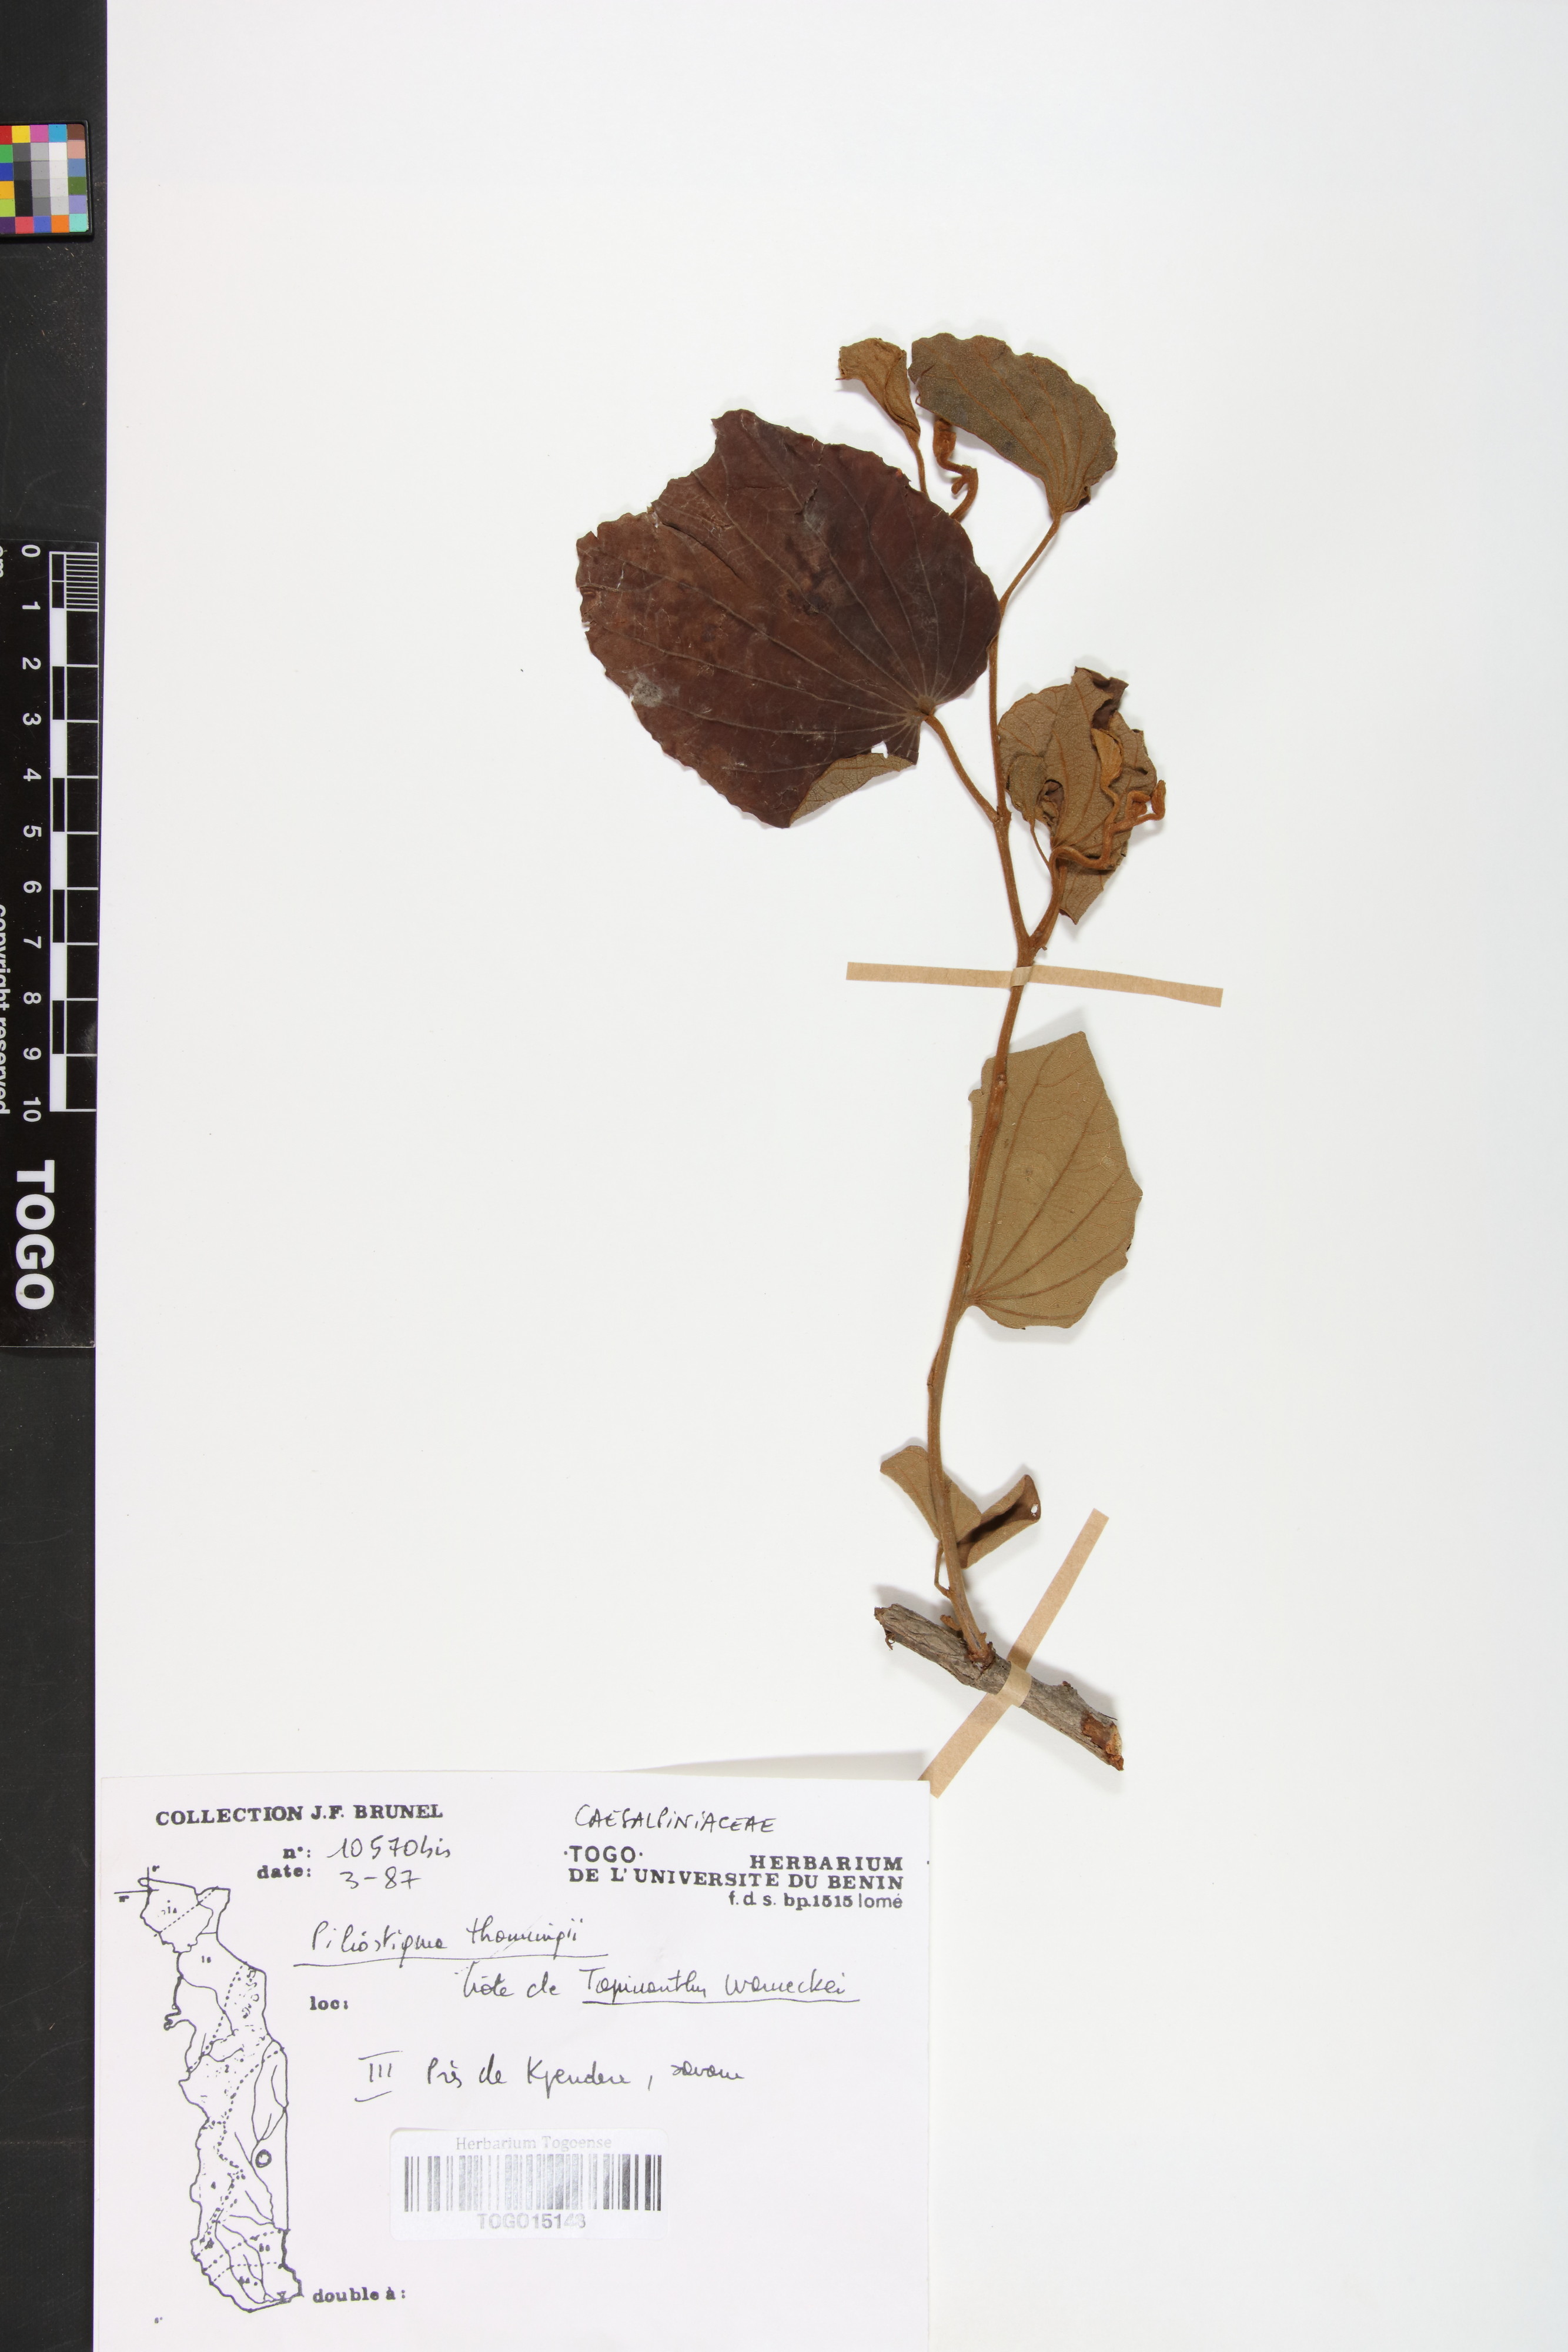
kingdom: Plantae
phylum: Tracheophyta
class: Magnoliopsida
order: Fabales
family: Fabaceae
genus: Piliostigma
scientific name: Piliostigma thonningii
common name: Kao
